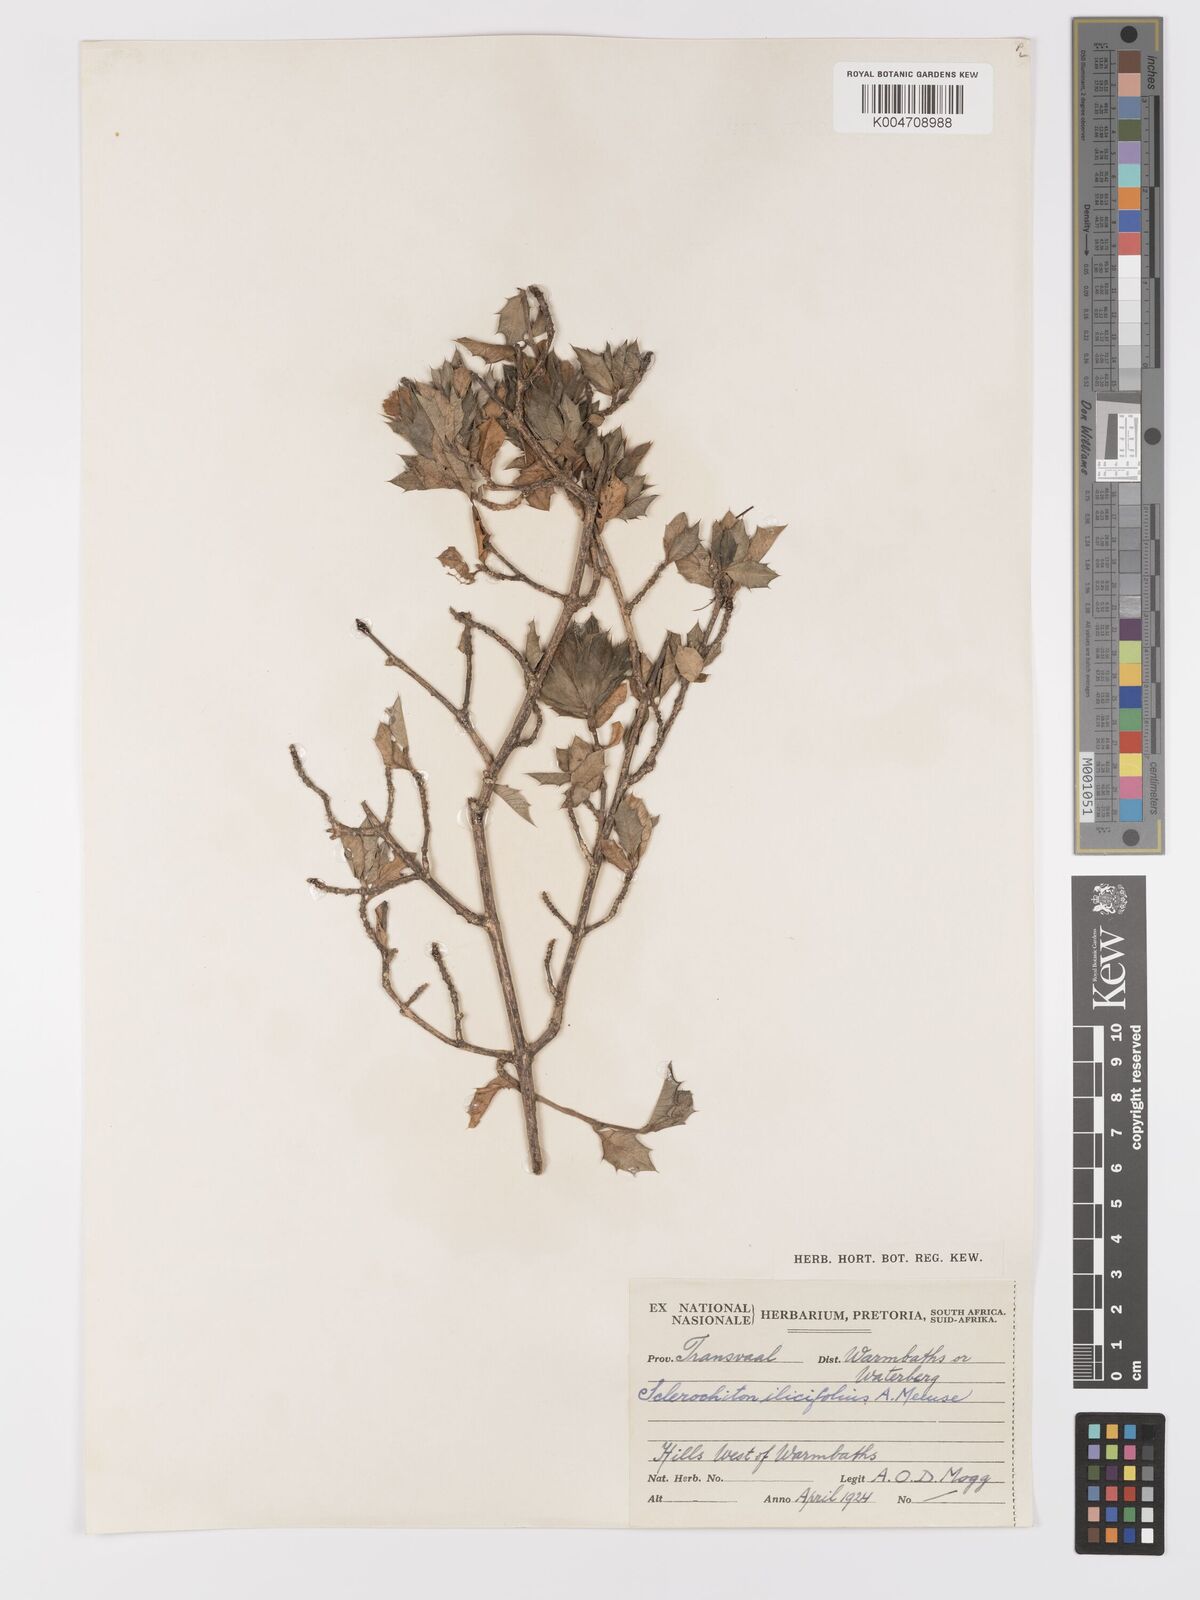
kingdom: Plantae
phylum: Tracheophyta
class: Magnoliopsida
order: Lamiales
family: Acanthaceae
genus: Sclerochiton
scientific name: Sclerochiton ilicifolius
